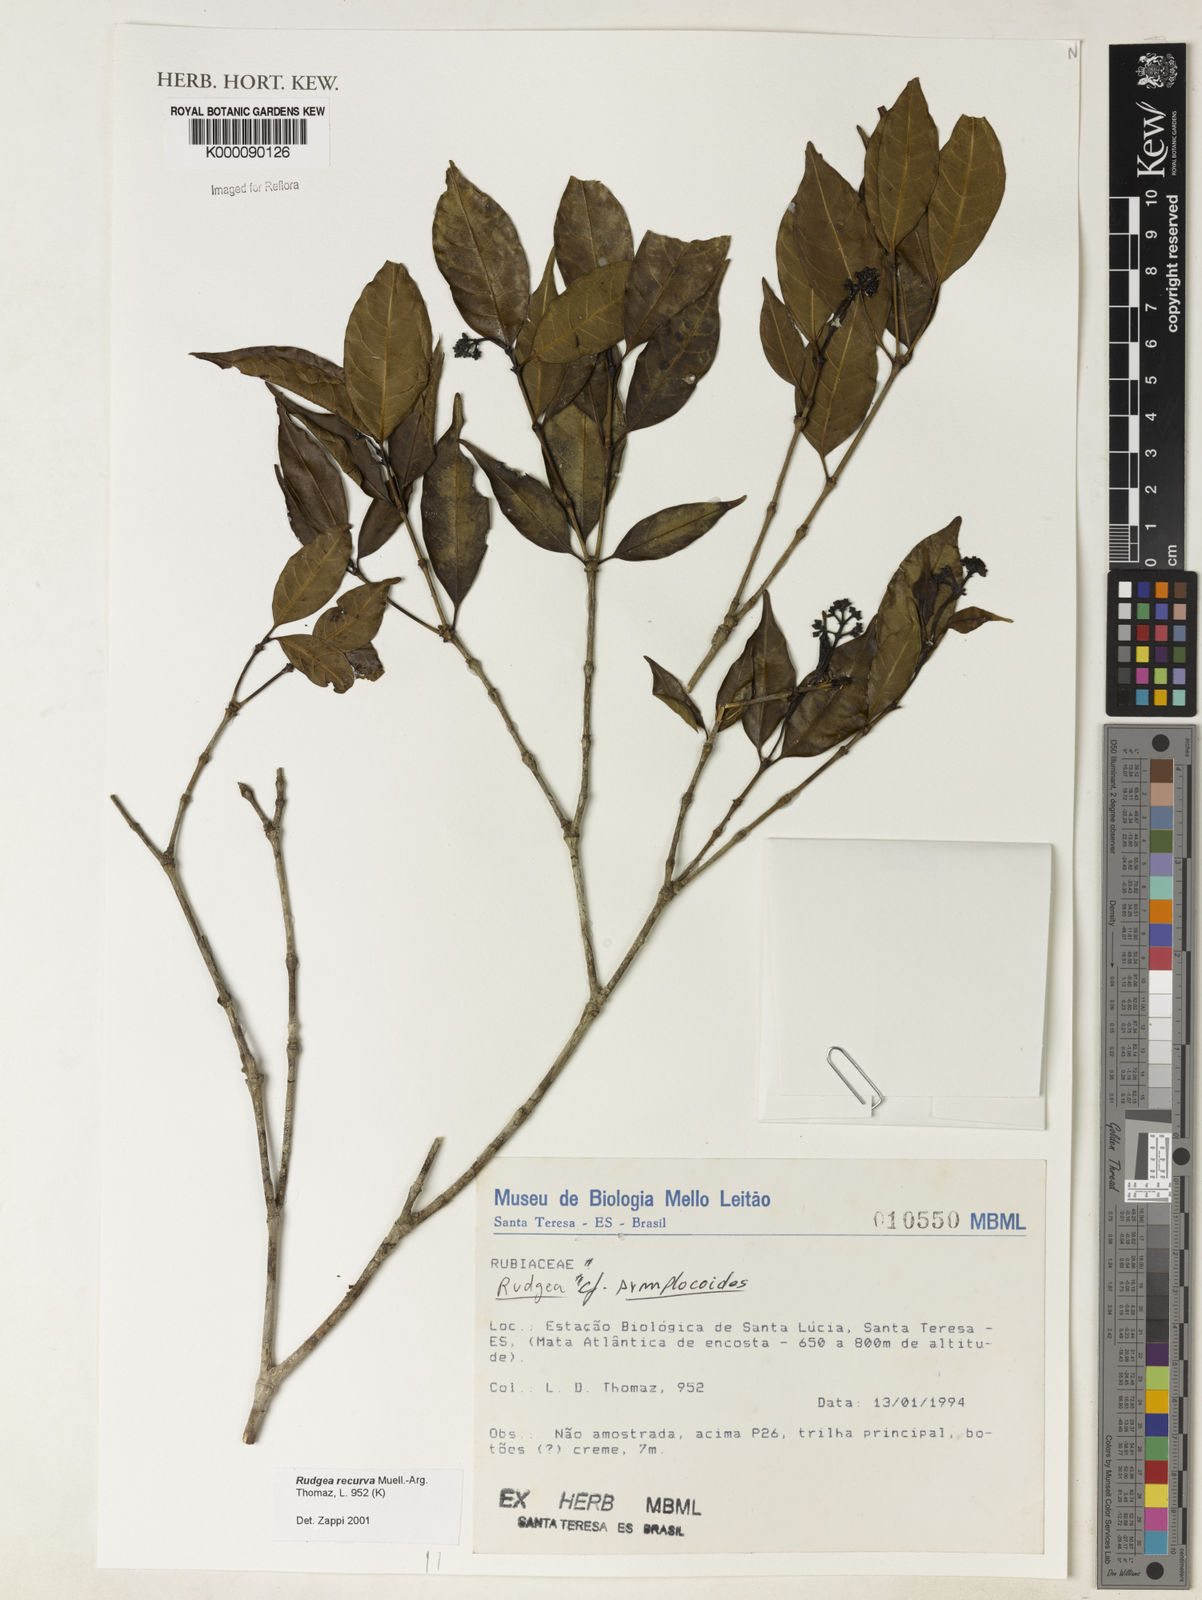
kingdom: Plantae
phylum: Tracheophyta
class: Magnoliopsida
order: Gentianales
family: Rubiaceae
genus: Rudgea
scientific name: Rudgea recurva
